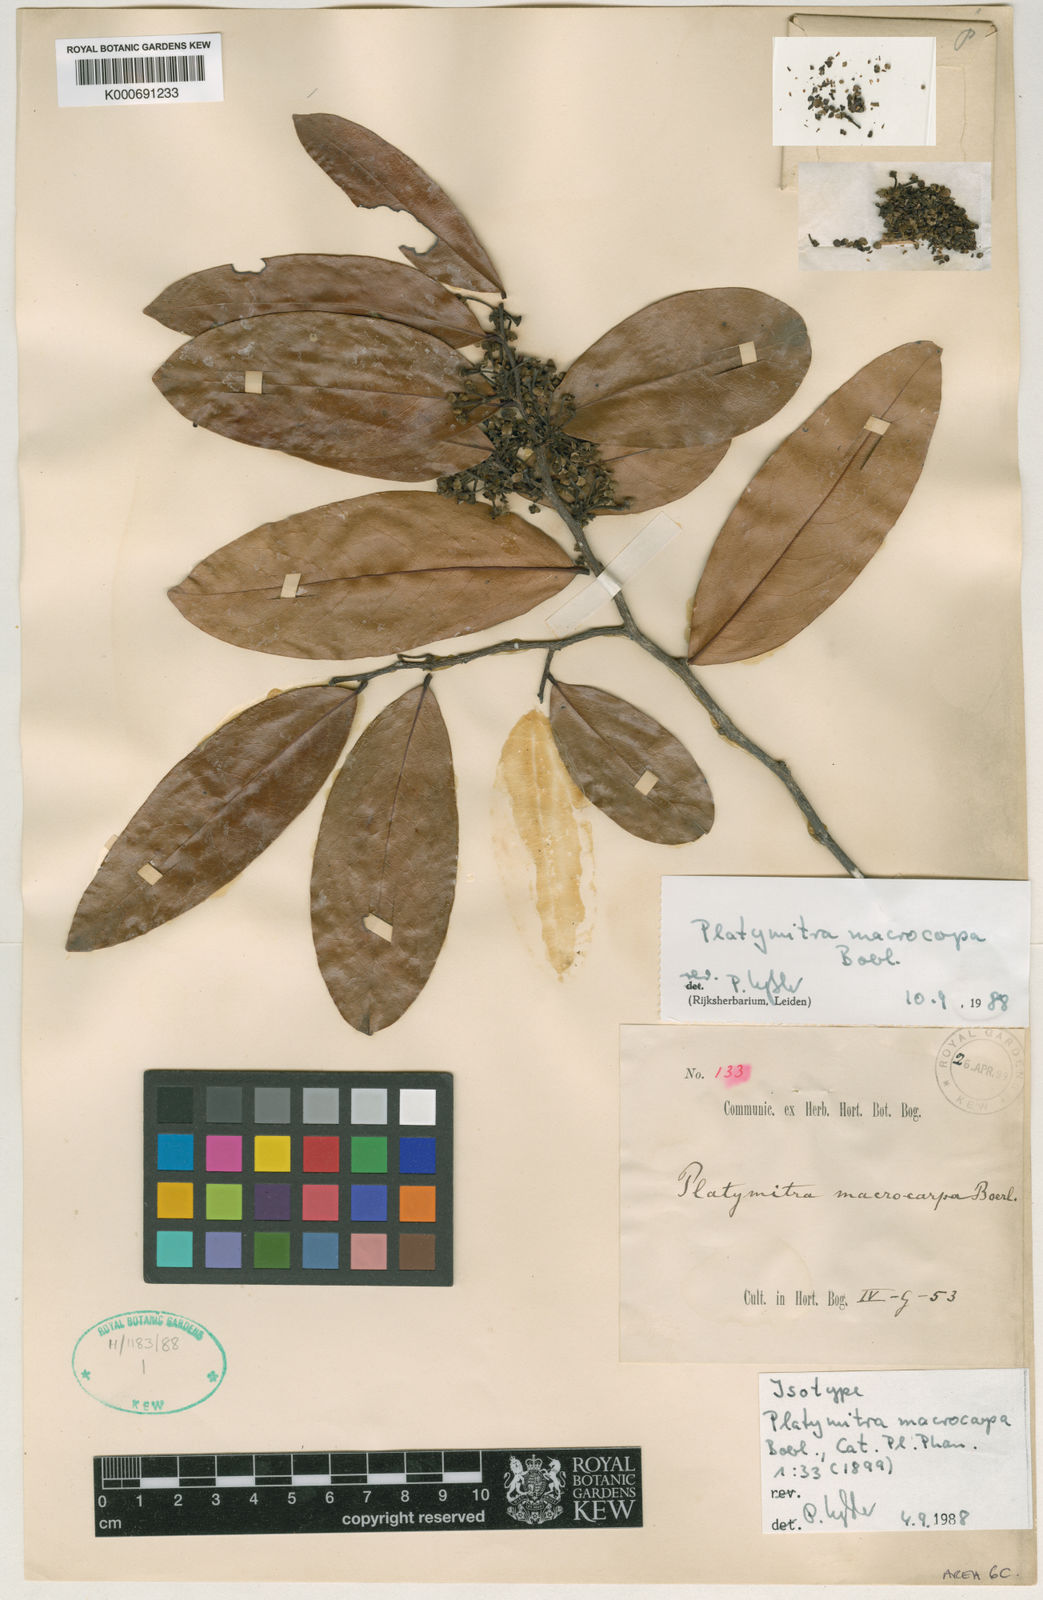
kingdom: Plantae
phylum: Tracheophyta
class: Magnoliopsida
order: Magnoliales
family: Annonaceae
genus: Platymitra
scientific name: Platymitra macrocarpa
